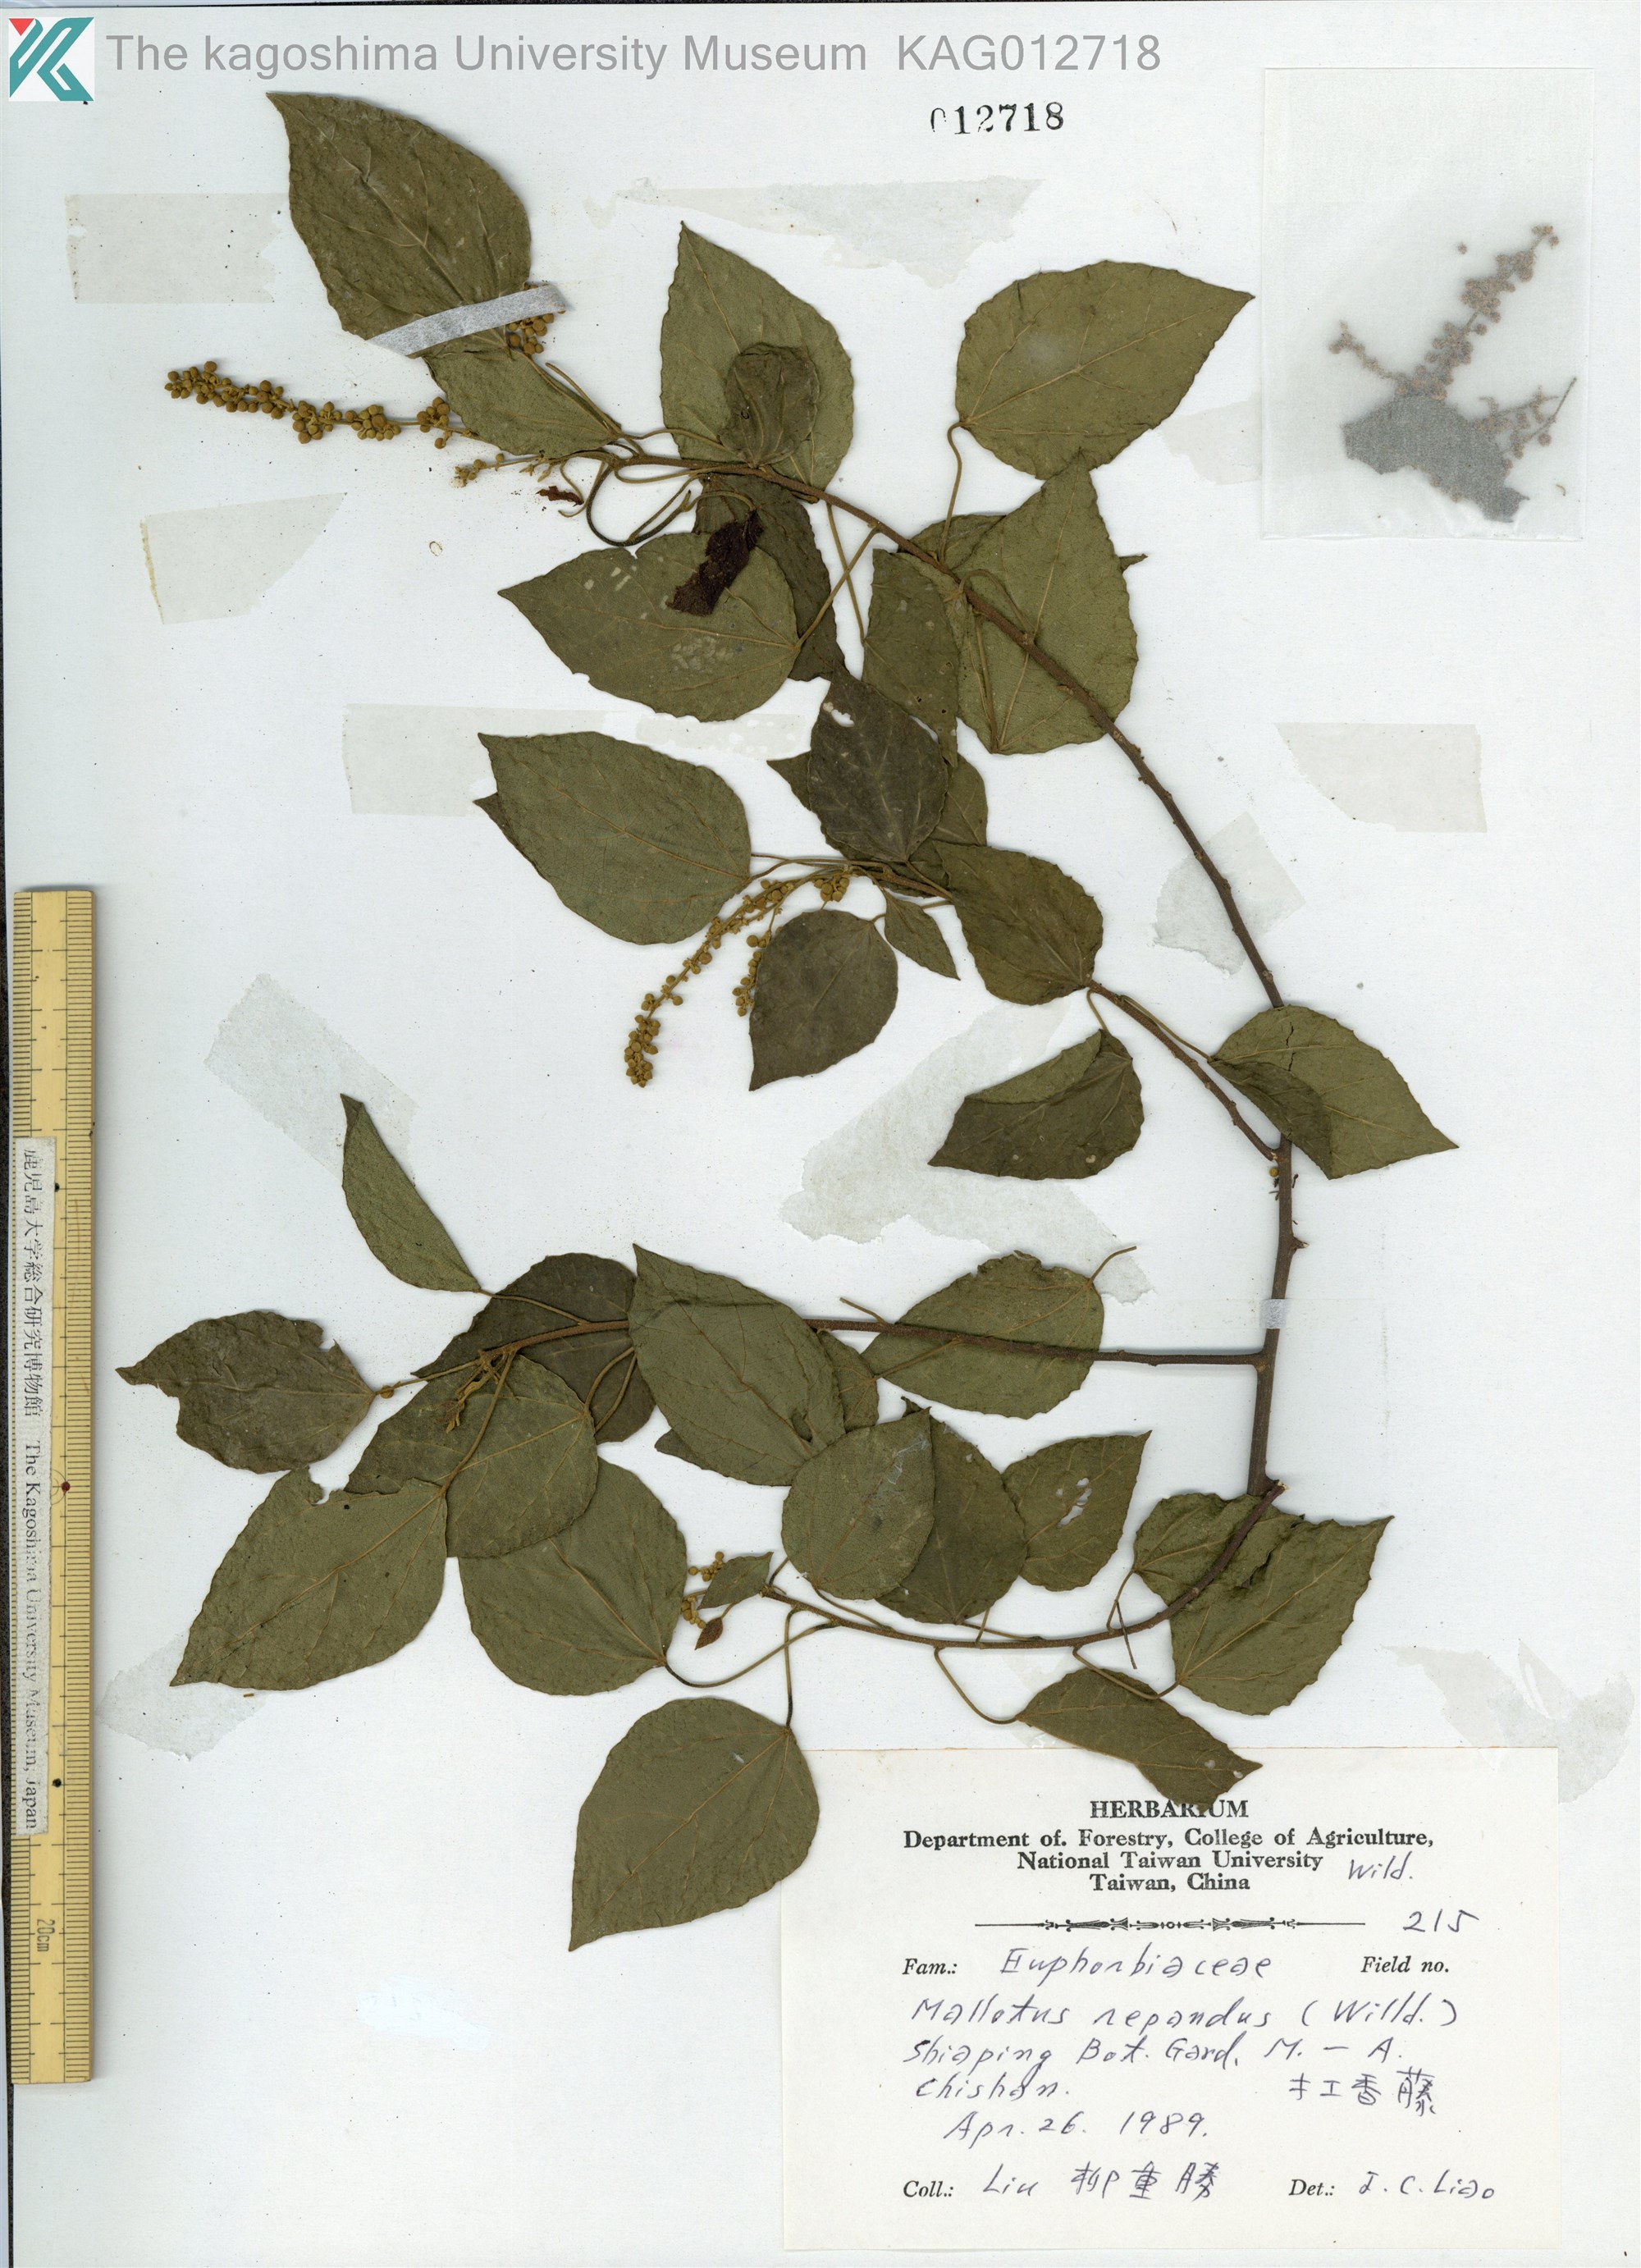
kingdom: Plantae
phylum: Tracheophyta
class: Magnoliopsida
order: Malpighiales
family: Euphorbiaceae
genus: Mallotus
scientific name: Mallotus repandus
